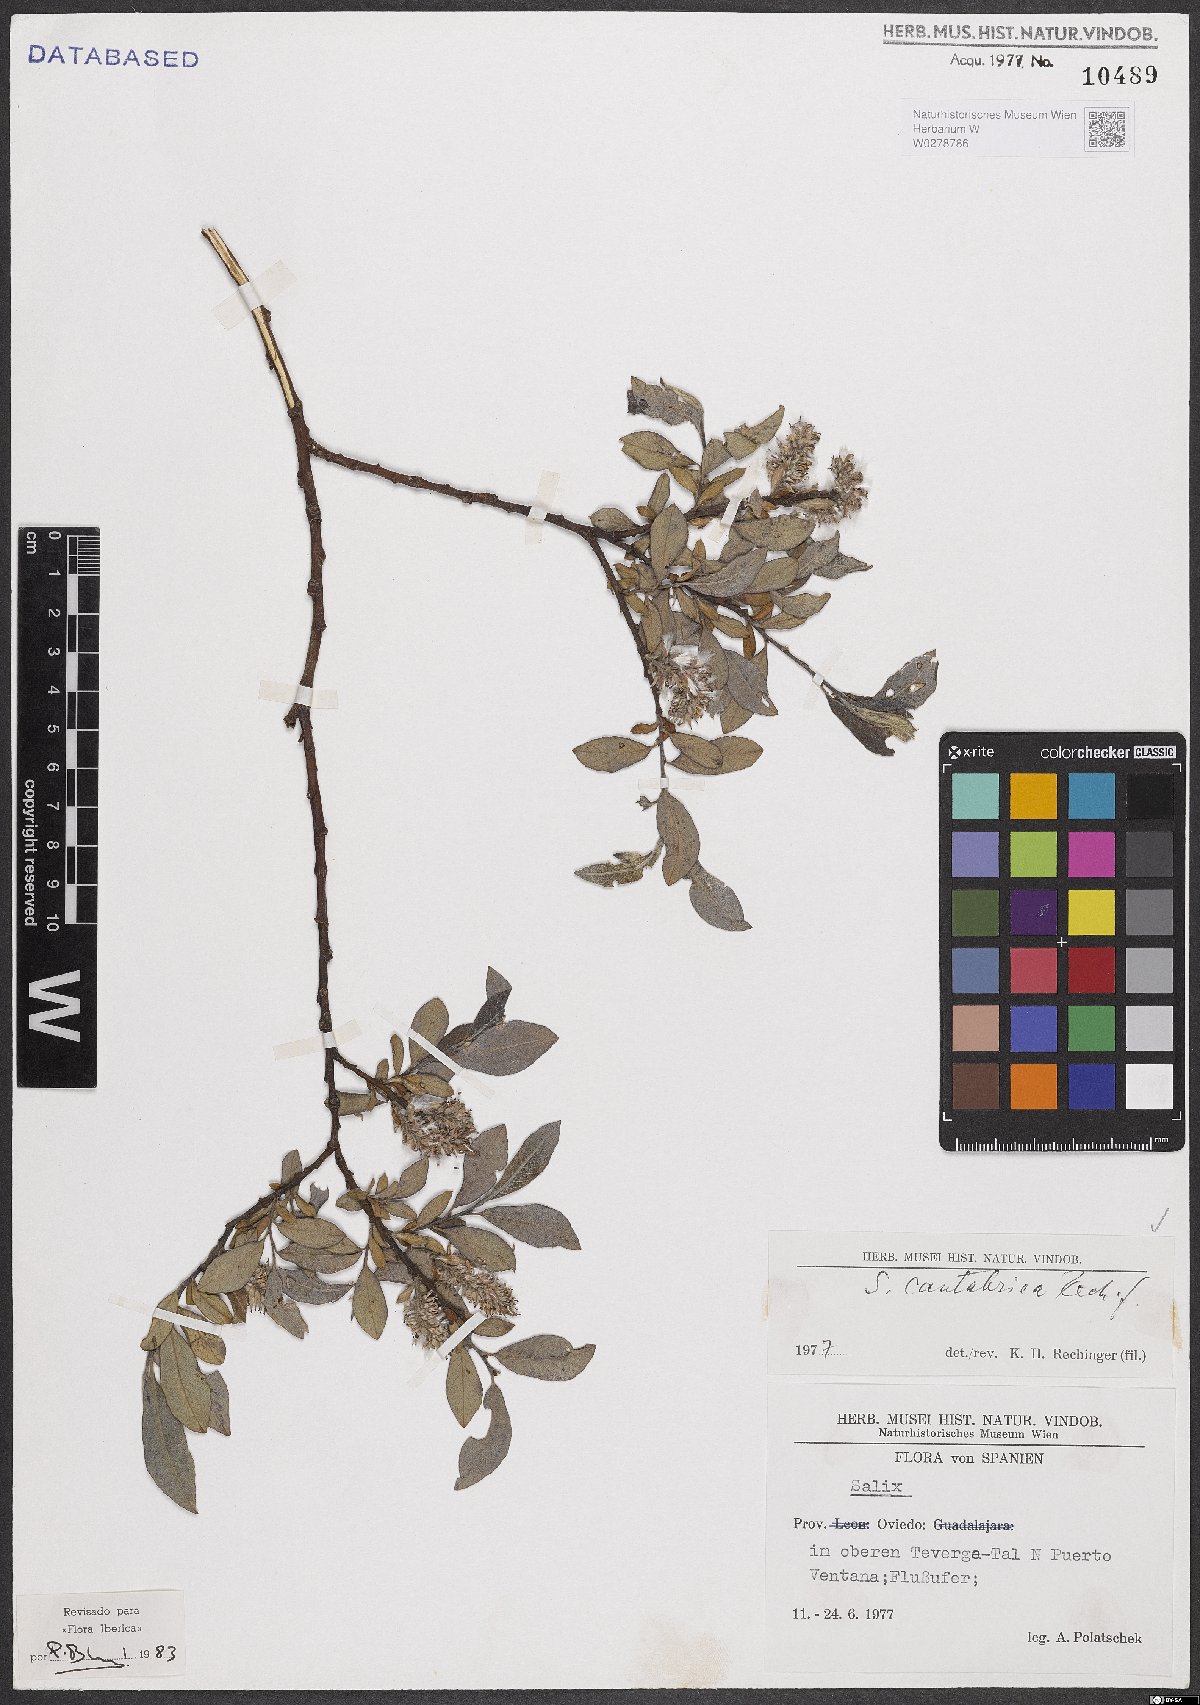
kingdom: Plantae
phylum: Tracheophyta
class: Magnoliopsida
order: Malpighiales
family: Salicaceae
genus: Salix
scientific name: Salix cantabrica
